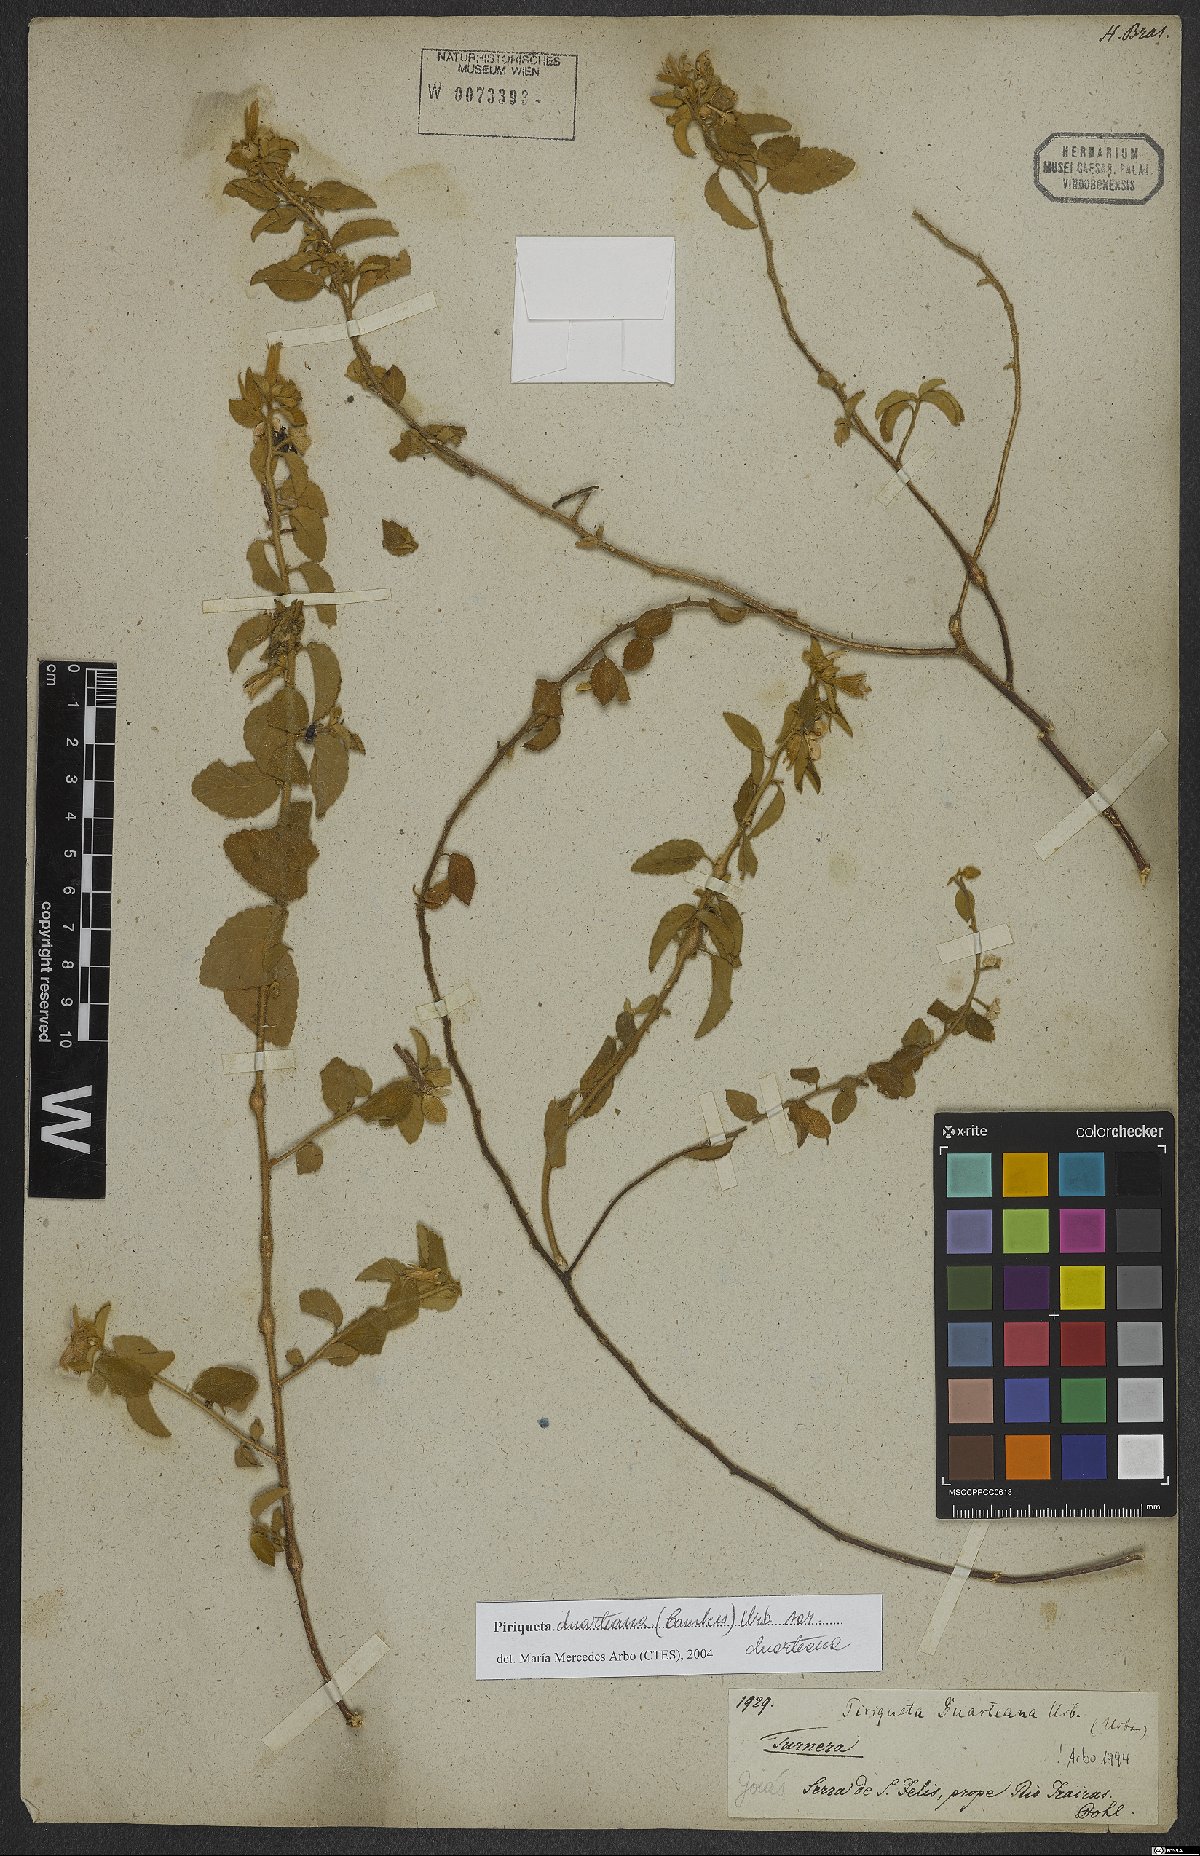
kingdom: Plantae
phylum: Tracheophyta
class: Magnoliopsida
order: Malpighiales
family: Turneraceae
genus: Piriqueta
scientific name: Piriqueta duarteana
